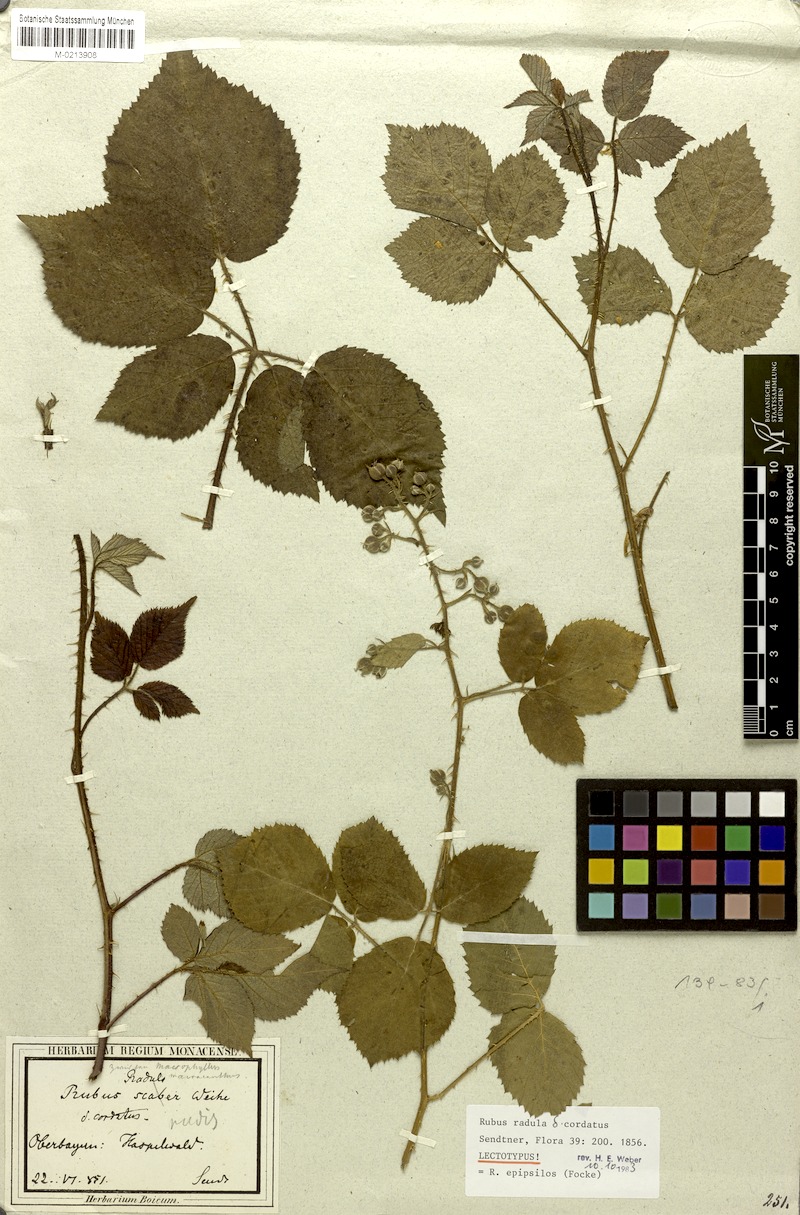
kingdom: Plantae
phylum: Tracheophyta
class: Magnoliopsida
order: Rosales
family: Rosaceae
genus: Rubus
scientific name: Rubus epipsilos
